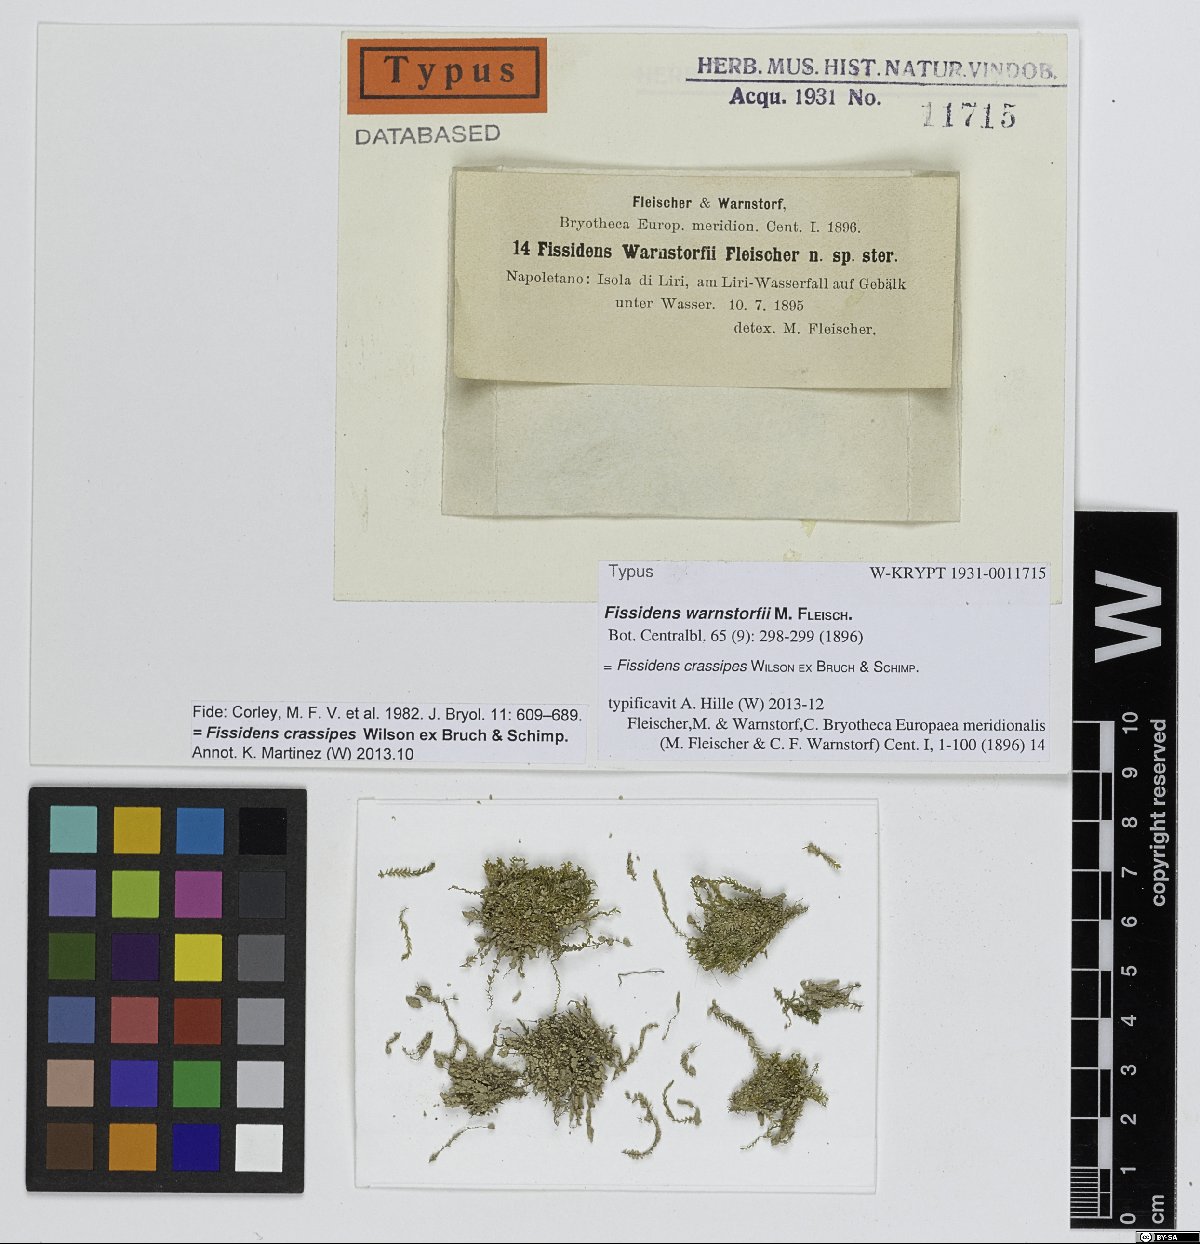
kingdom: Plantae
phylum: Bryophyta
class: Bryopsida
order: Dicranales
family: Fissidentaceae
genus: Fissidens
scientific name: Fissidens crassipes
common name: Fatfoot pocket-moss
